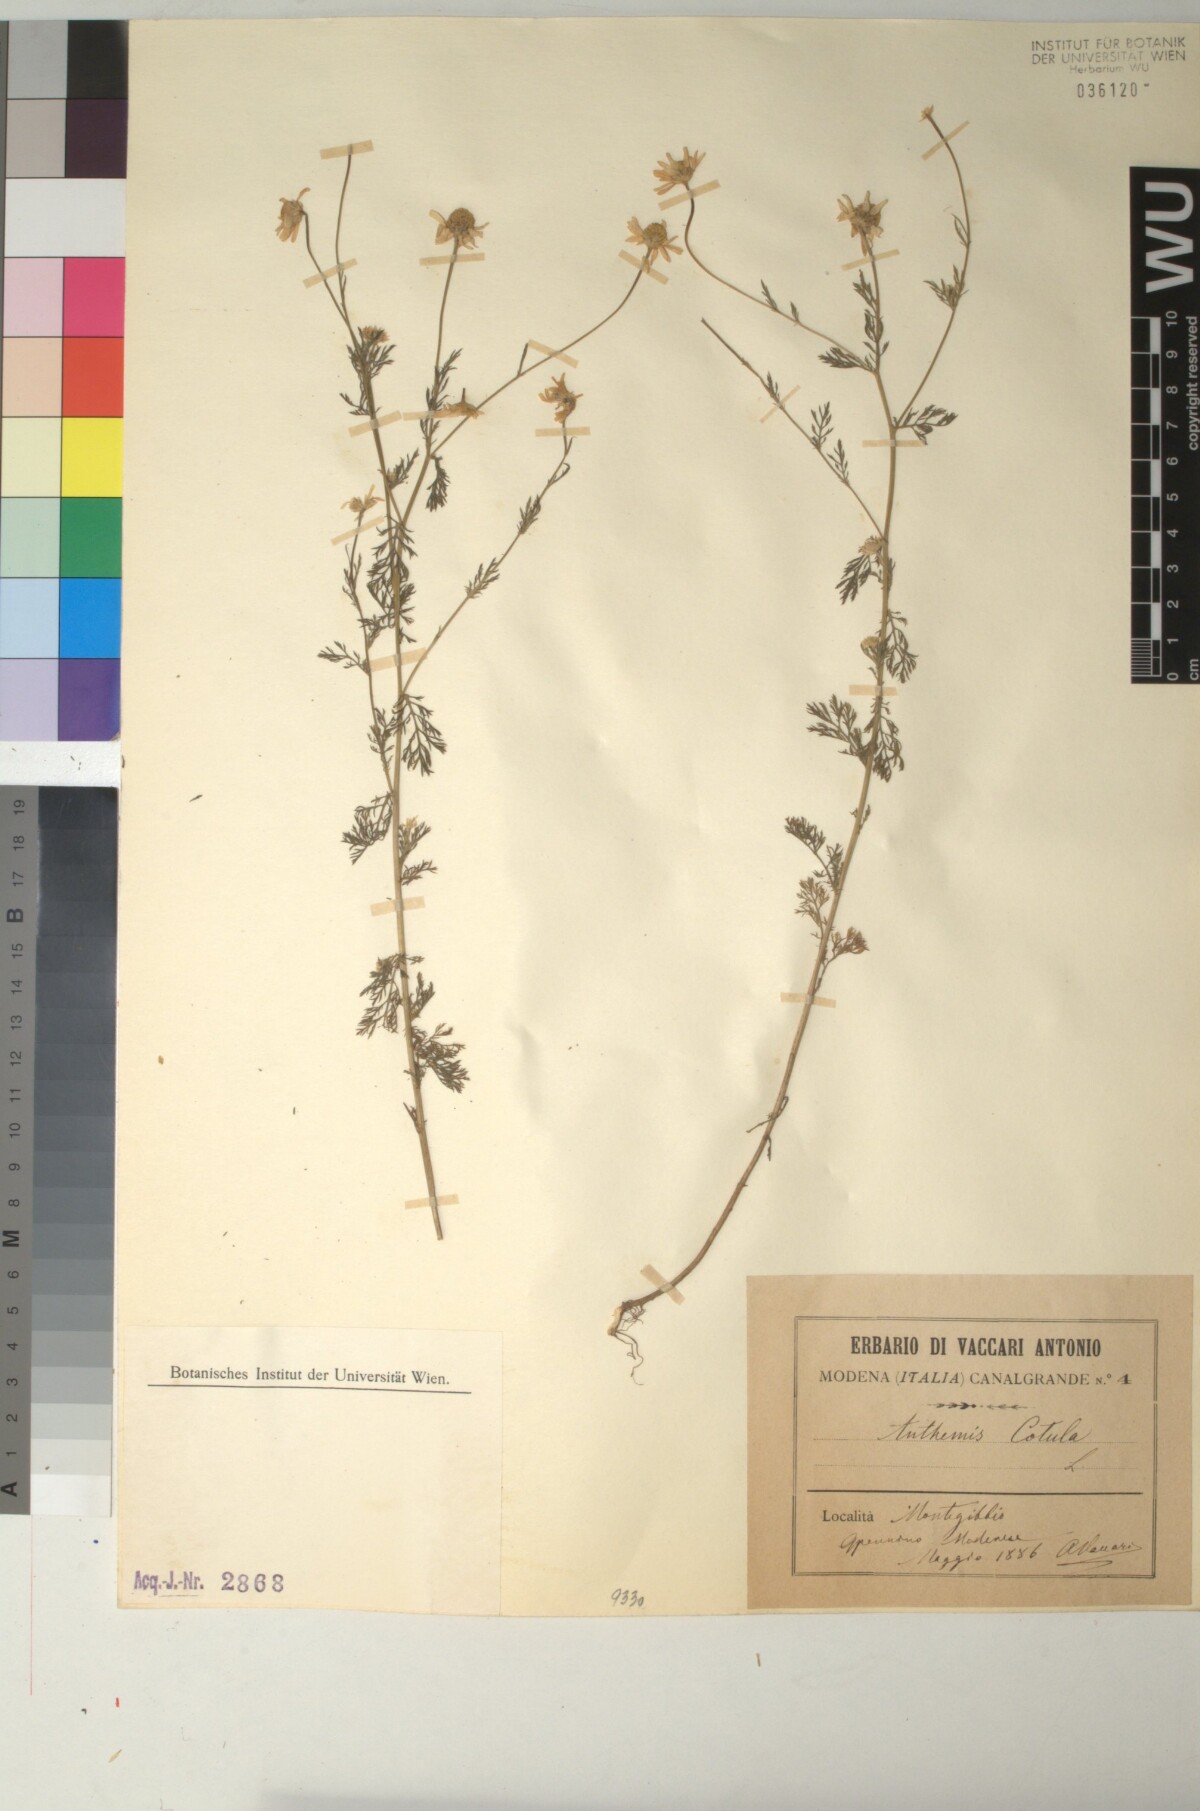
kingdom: Plantae
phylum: Tracheophyta
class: Magnoliopsida
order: Asterales
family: Asteraceae
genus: Anthemis
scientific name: Anthemis cotula
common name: Stinking chamomile
